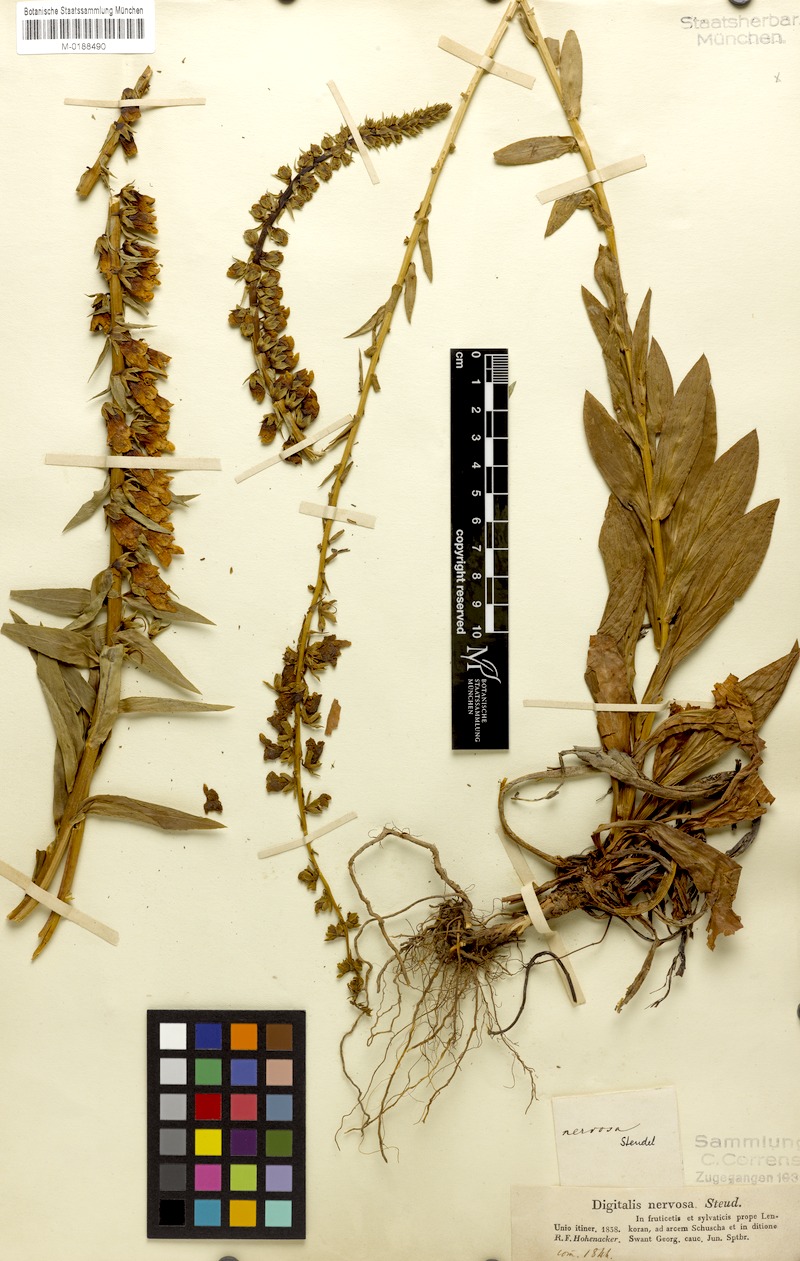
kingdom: Plantae
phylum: Tracheophyta
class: Magnoliopsida
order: Lamiales
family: Plantaginaceae
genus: Digitalis
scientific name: Digitalis nervosa
